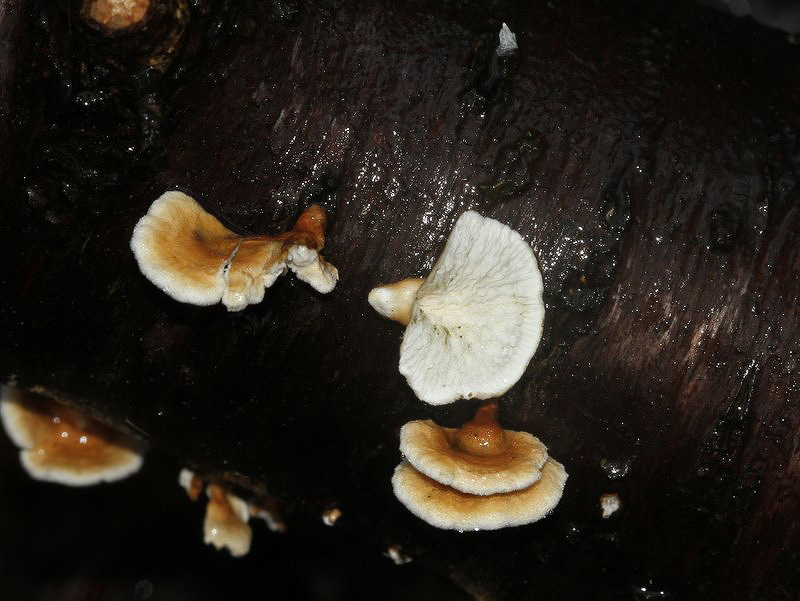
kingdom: Fungi
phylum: Basidiomycota
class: Agaricomycetes
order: Amylocorticiales
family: Amylocorticiaceae
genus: Plicaturopsis
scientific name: Plicaturopsis crispa
